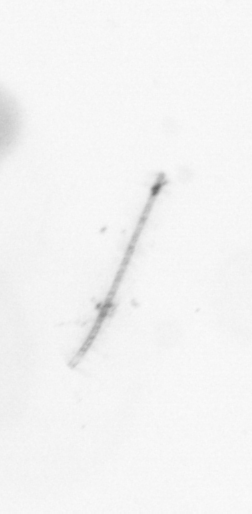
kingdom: Chromista
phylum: Ochrophyta
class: Bacillariophyceae
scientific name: Bacillariophyceae
